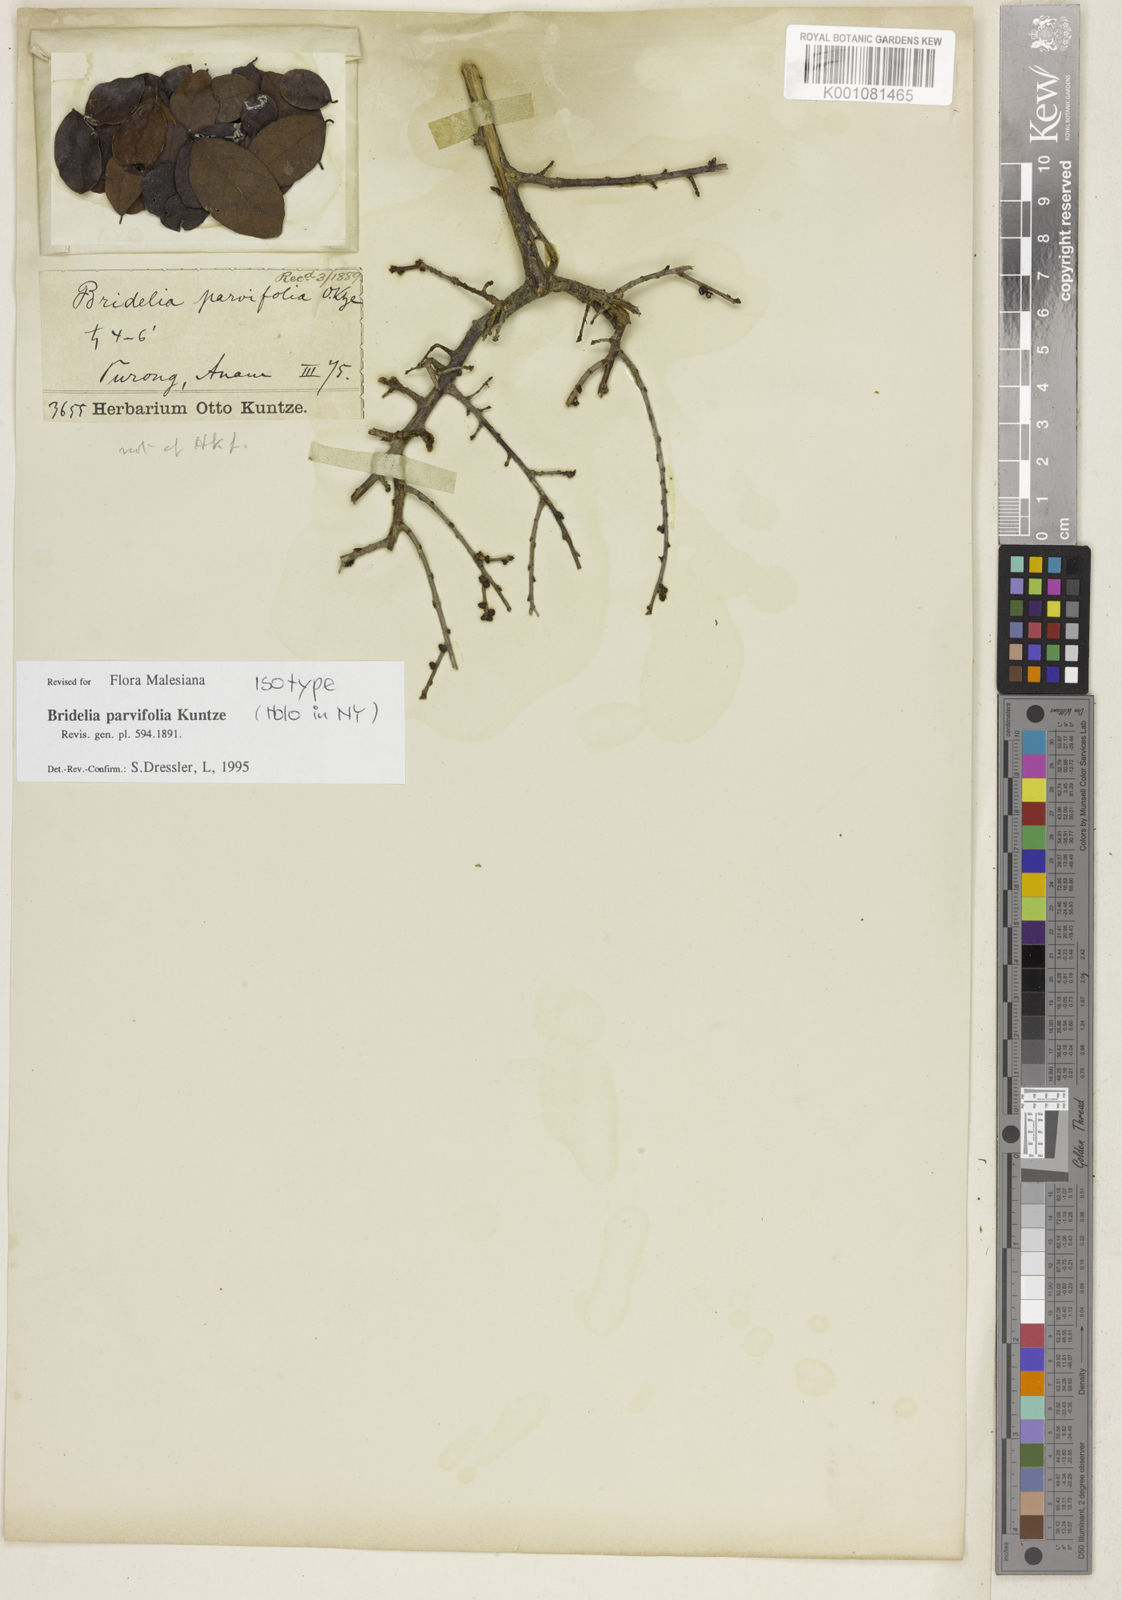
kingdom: Plantae
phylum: Tracheophyta
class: Magnoliopsida
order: Malpighiales
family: Phyllanthaceae
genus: Bridelia
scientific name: Bridelia parvifolia
